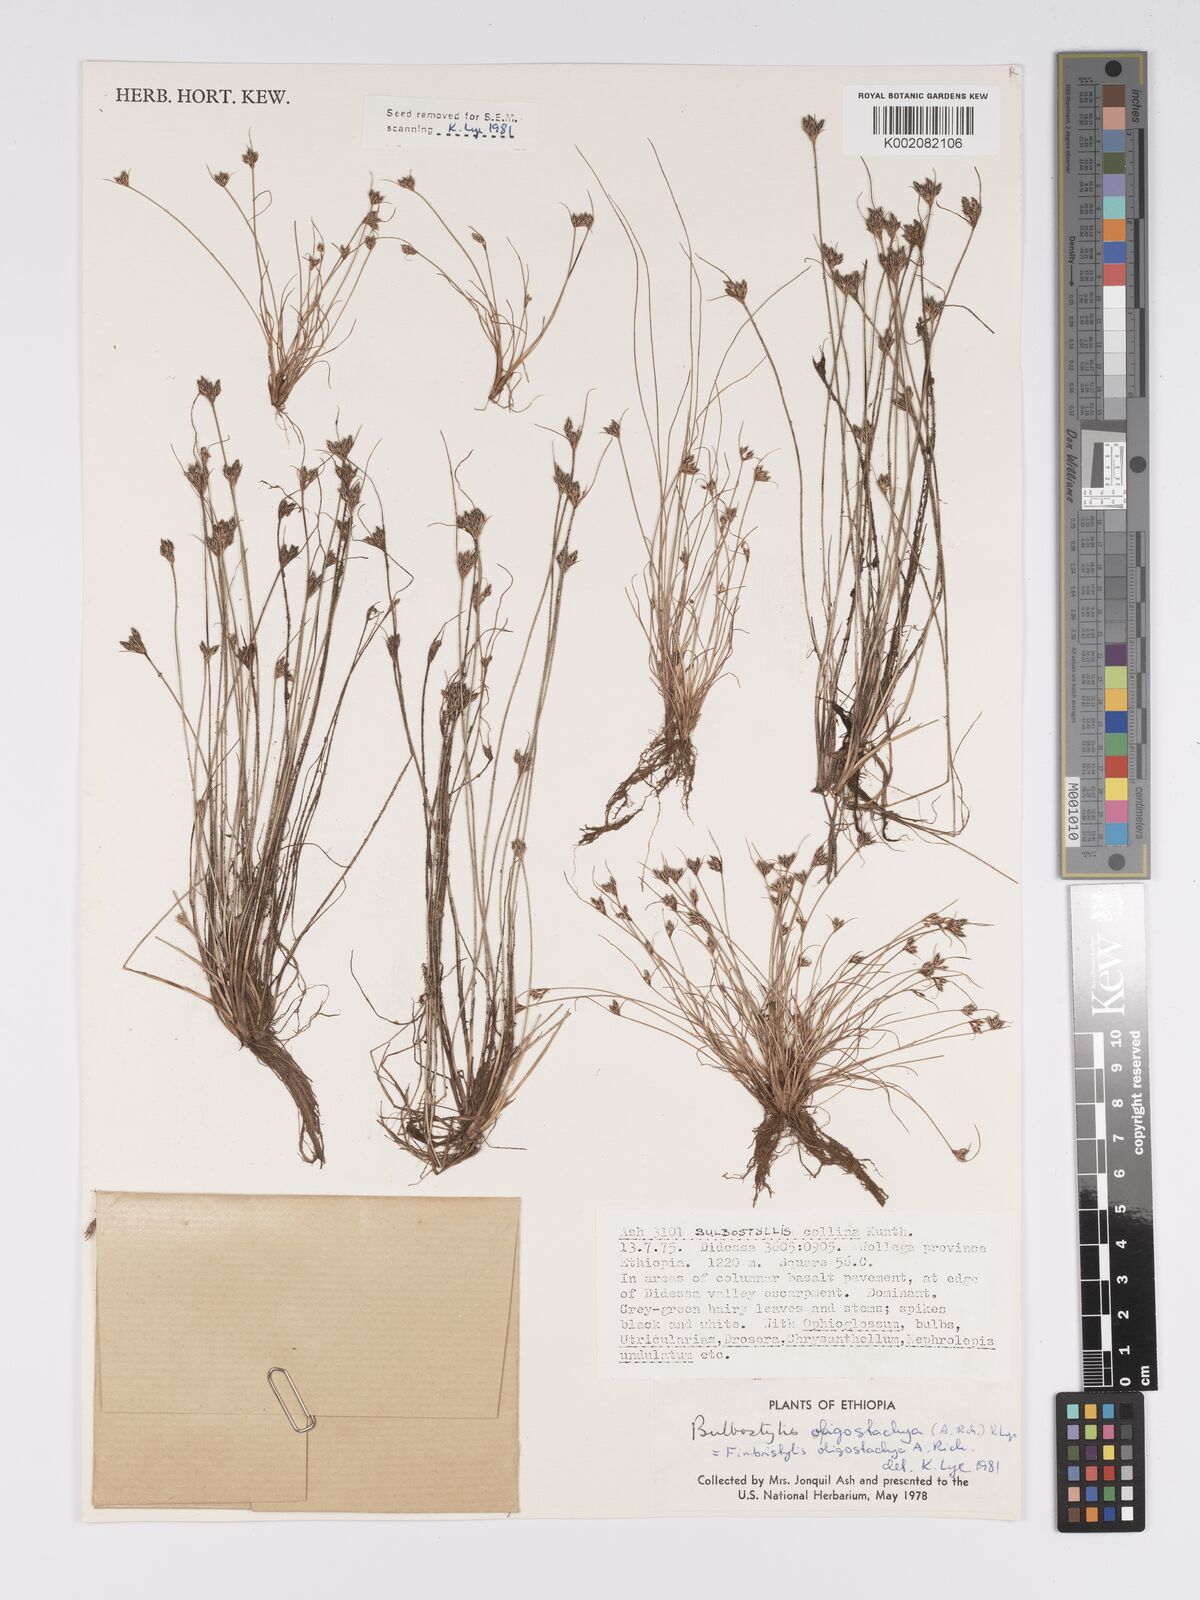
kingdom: Plantae
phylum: Tracheophyta
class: Liliopsida
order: Poales
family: Cyperaceae
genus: Bulbostylis
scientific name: Bulbostylis hispidula
